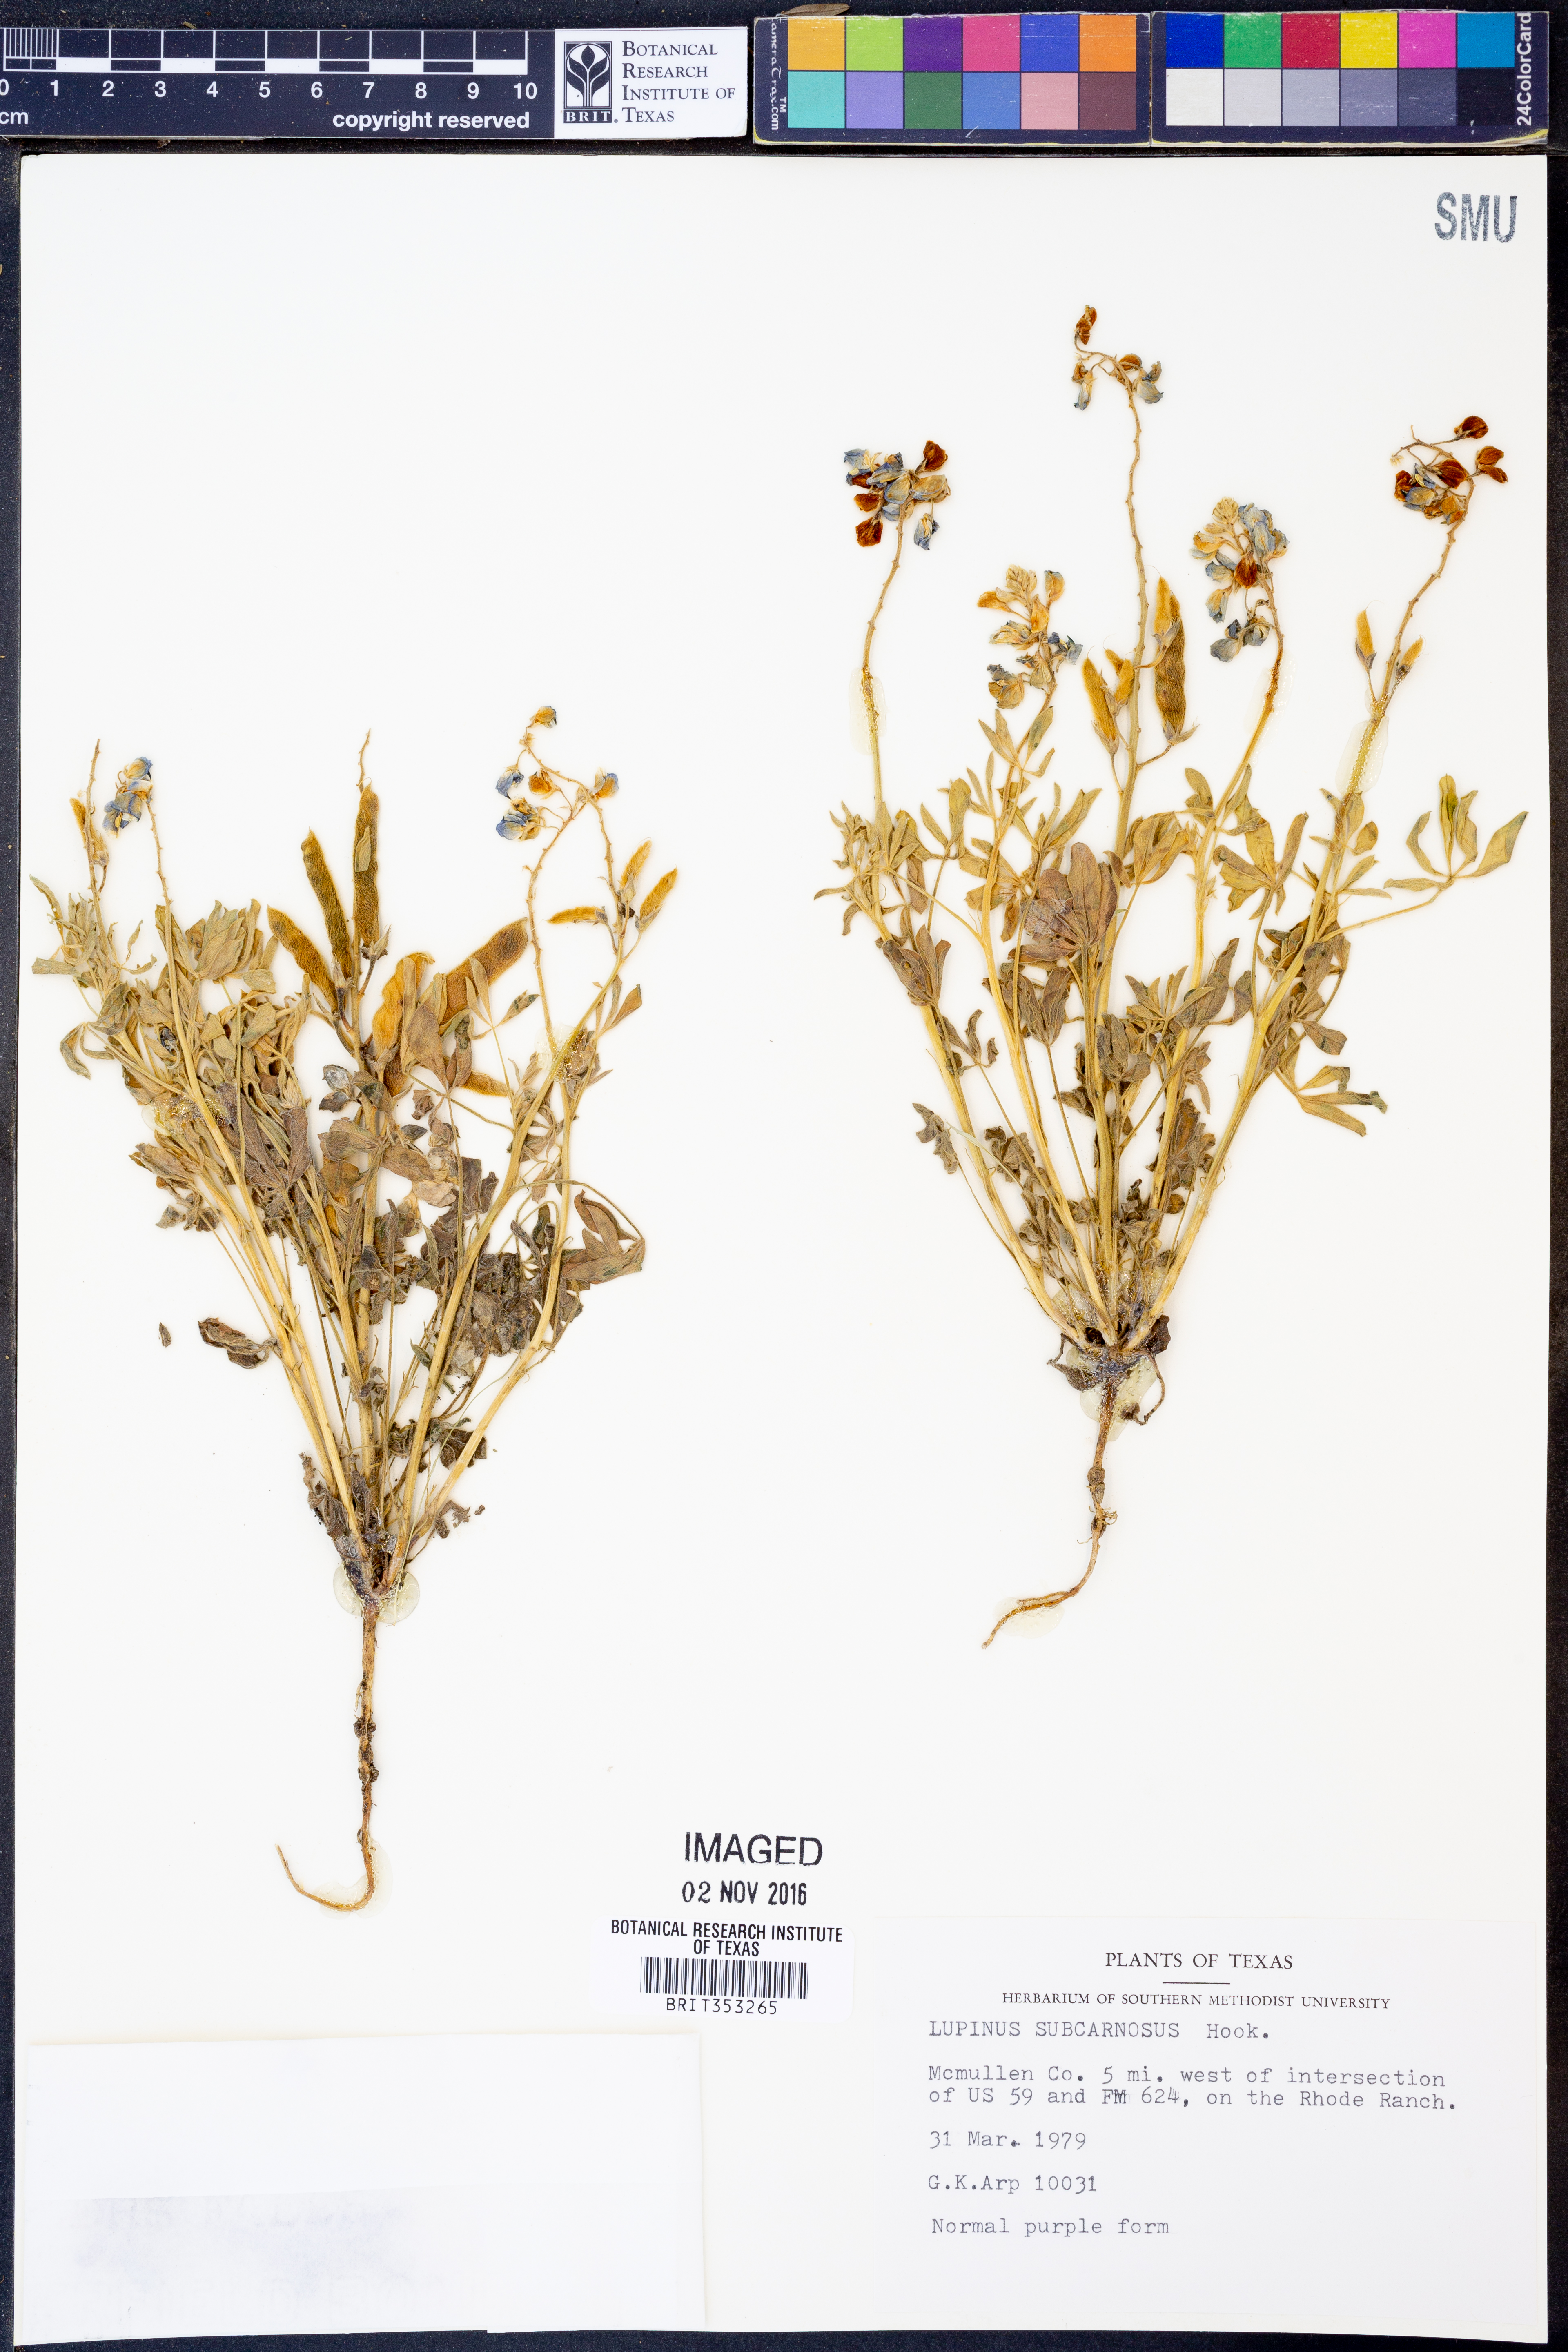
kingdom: Plantae
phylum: Tracheophyta
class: Magnoliopsida
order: Fabales
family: Fabaceae
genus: Lupinus
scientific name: Lupinus subcarnosus
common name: Texas bluebonnet
